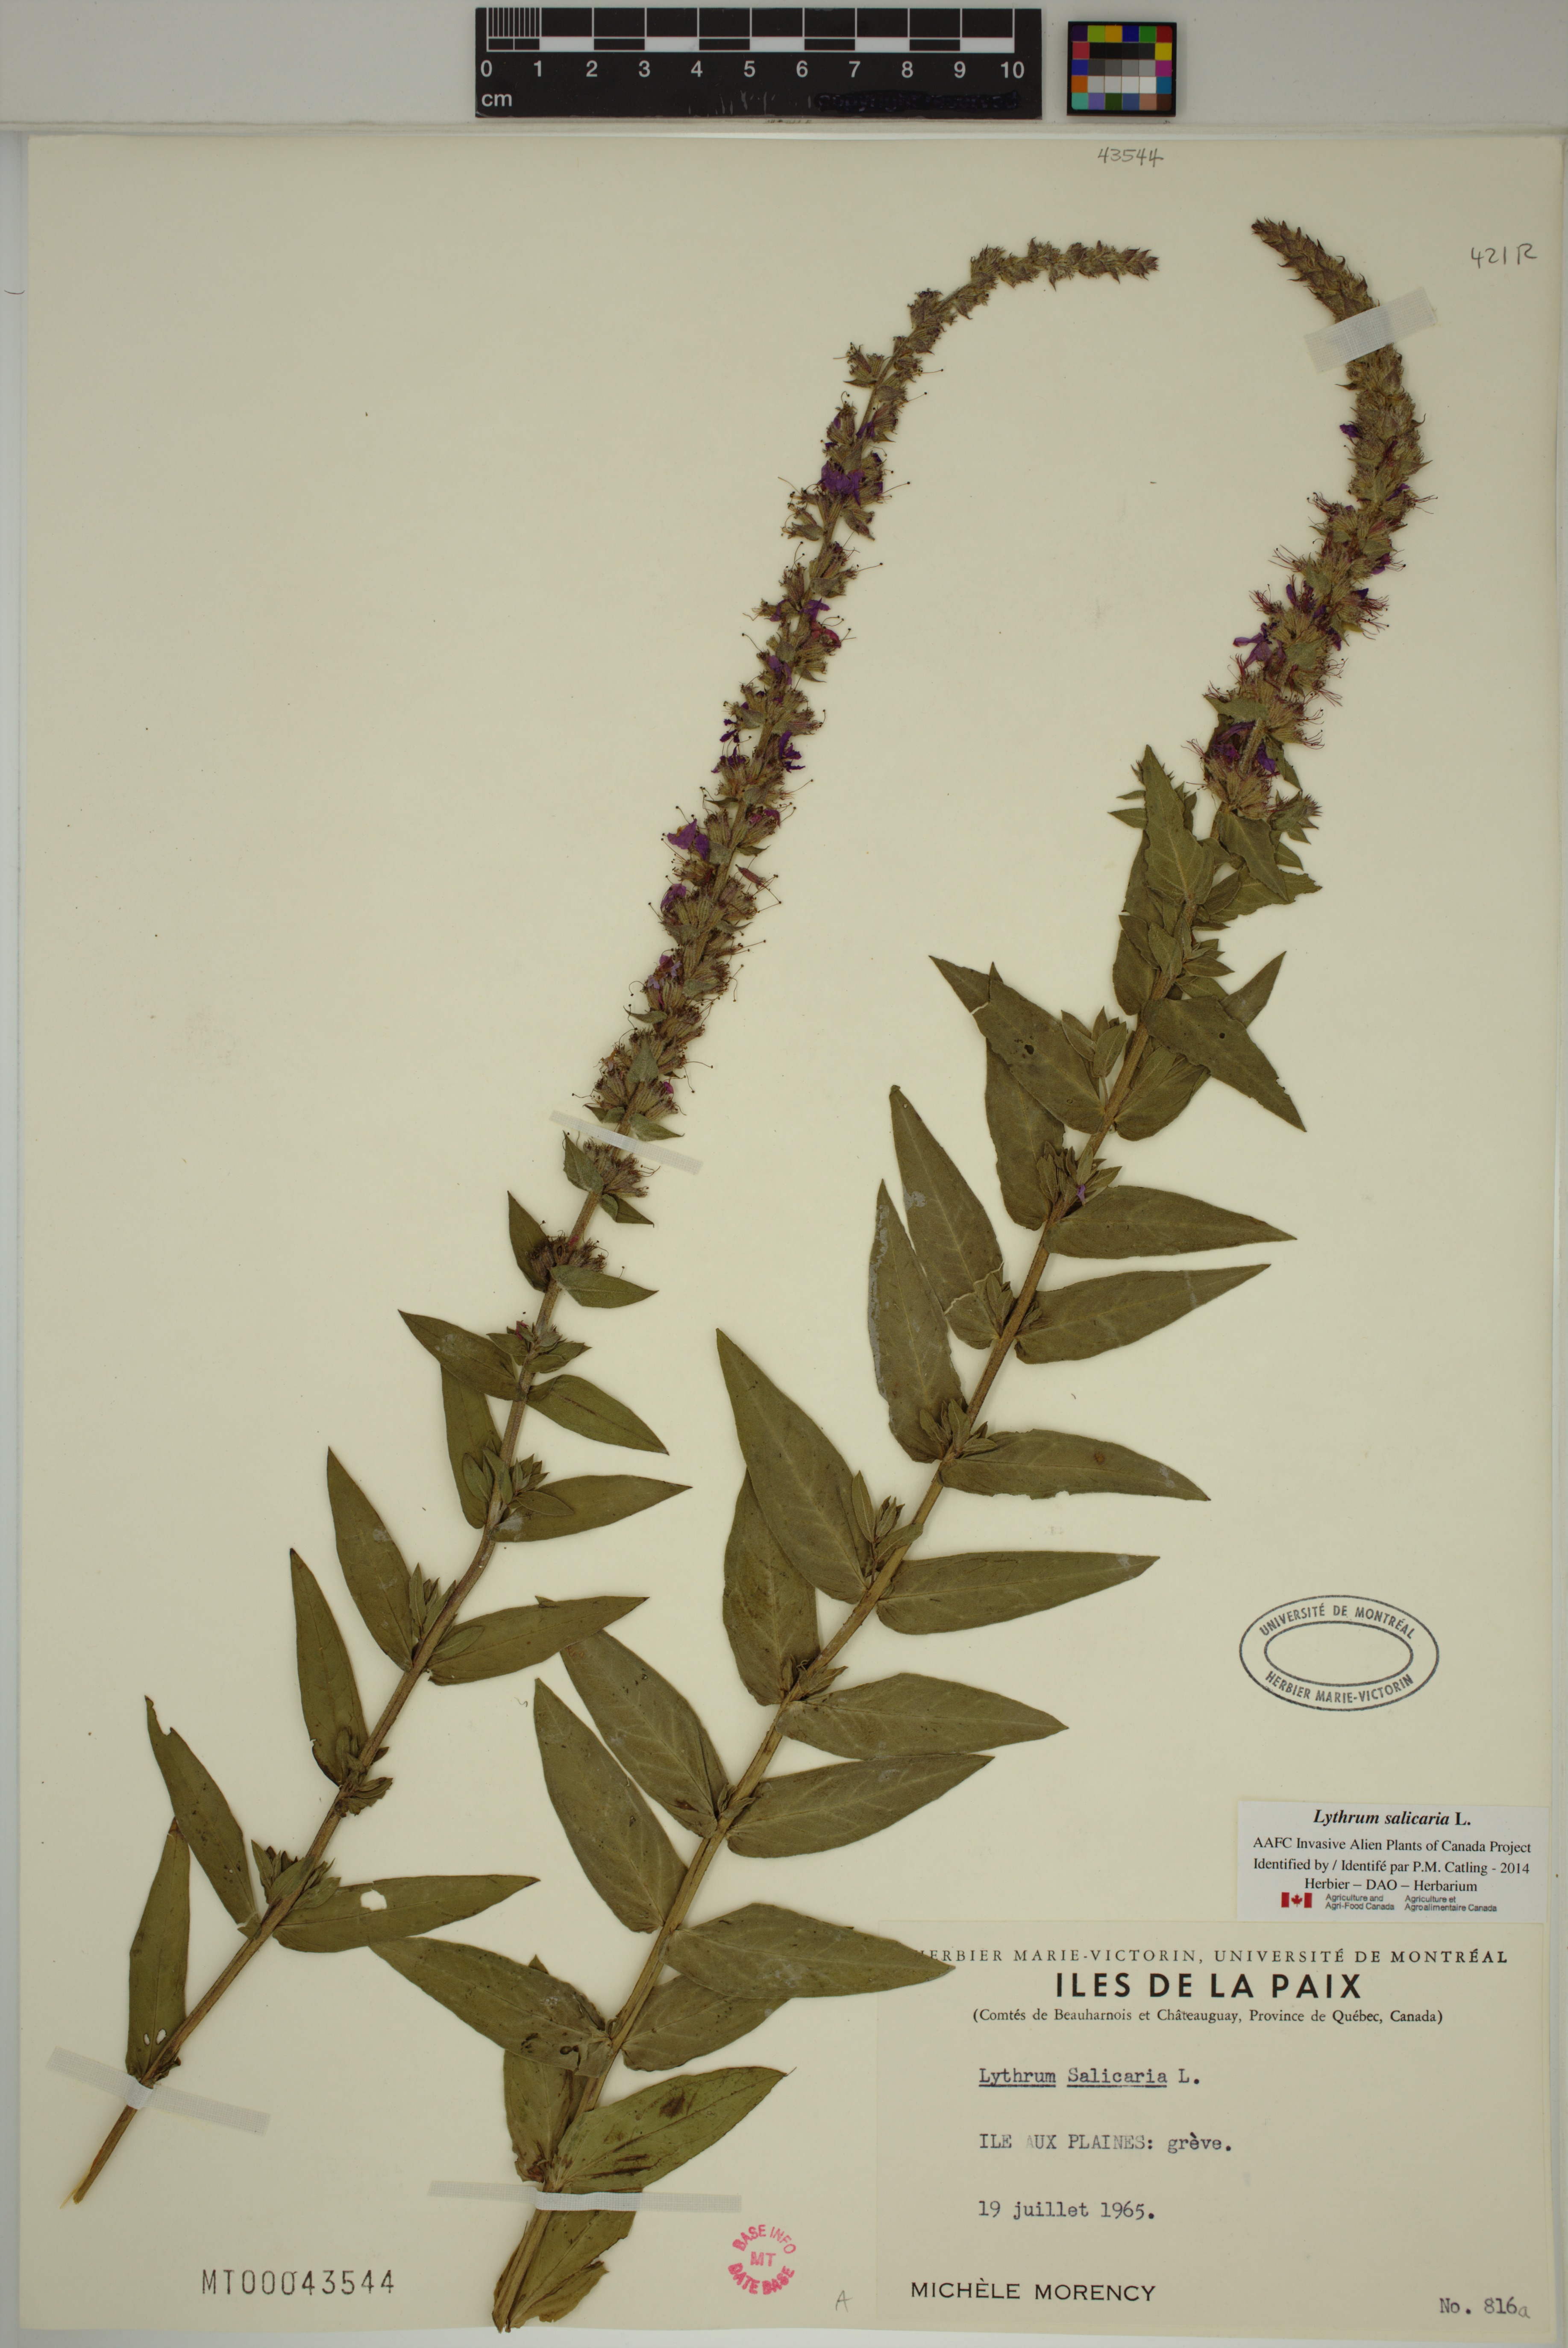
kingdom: Plantae
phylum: Tracheophyta
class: Magnoliopsida
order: Myrtales
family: Lythraceae
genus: Lythrum
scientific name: Lythrum salicaria
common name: Purple loosestrife
